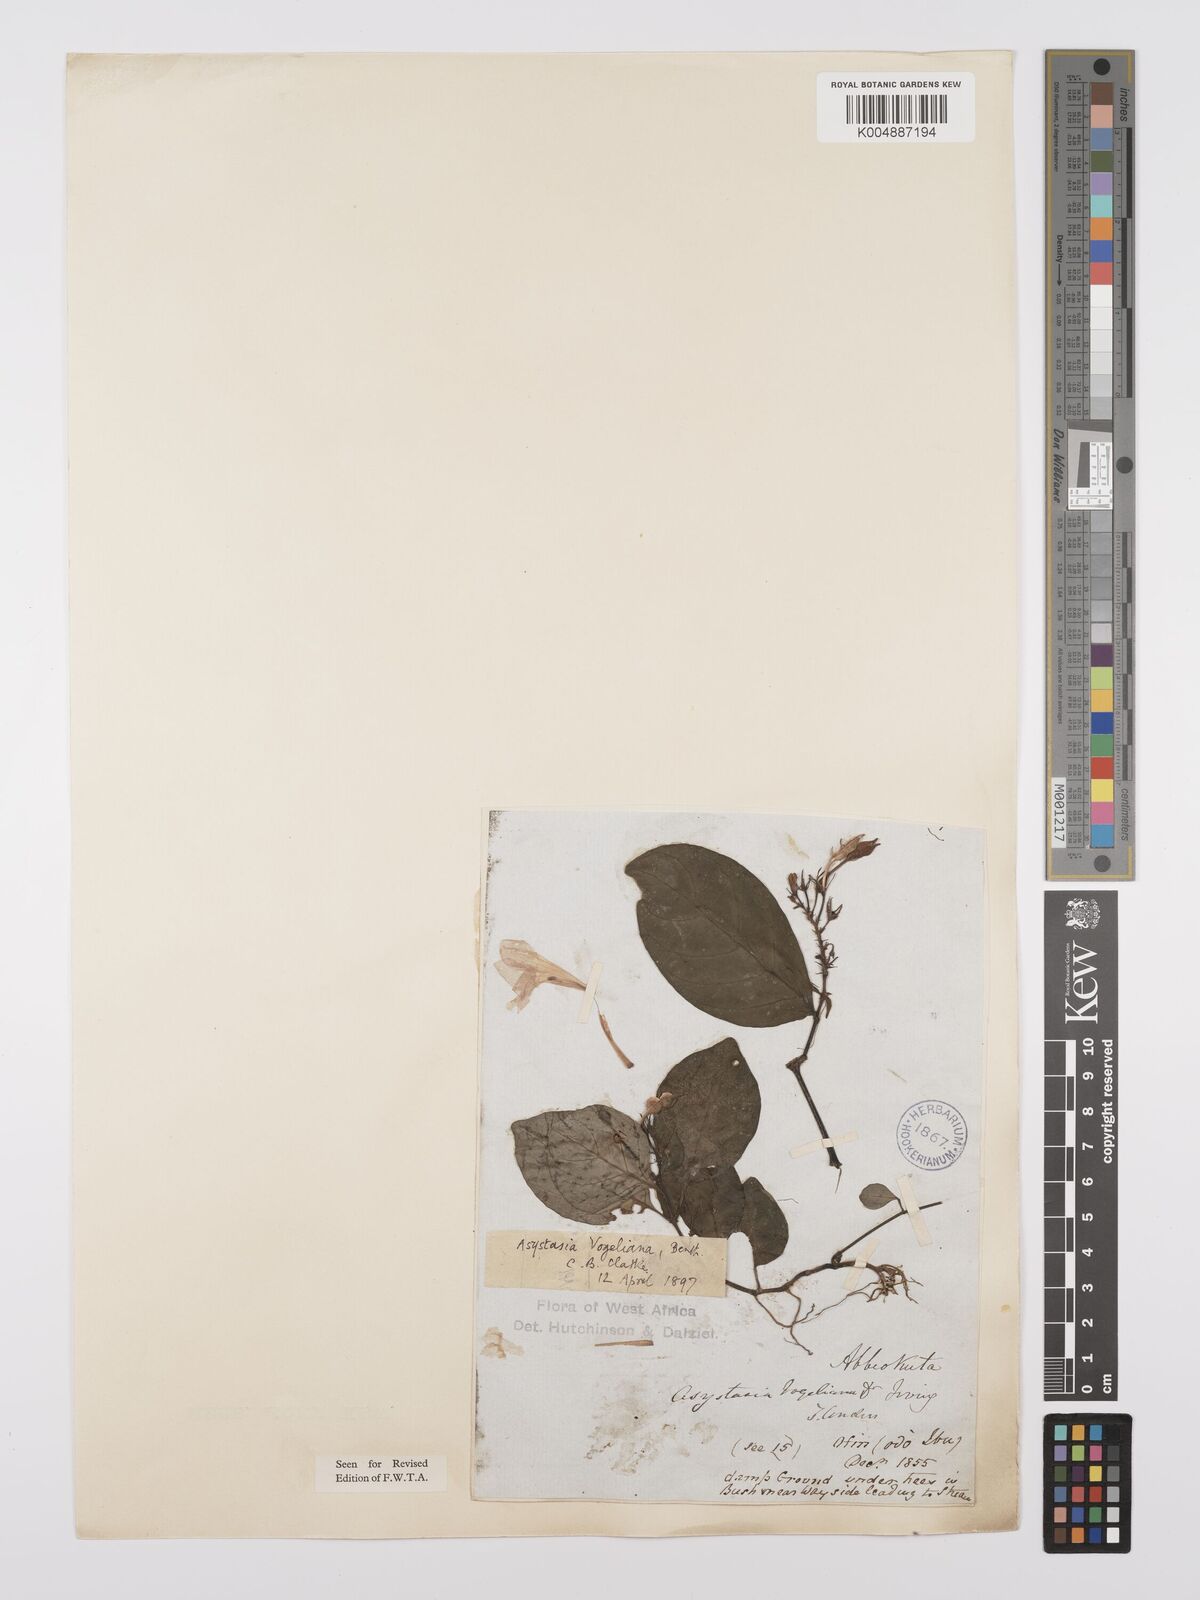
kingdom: Plantae
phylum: Tracheophyta
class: Magnoliopsida
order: Lamiales
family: Acanthaceae
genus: Asystasia
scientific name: Asystasia vogeliana
